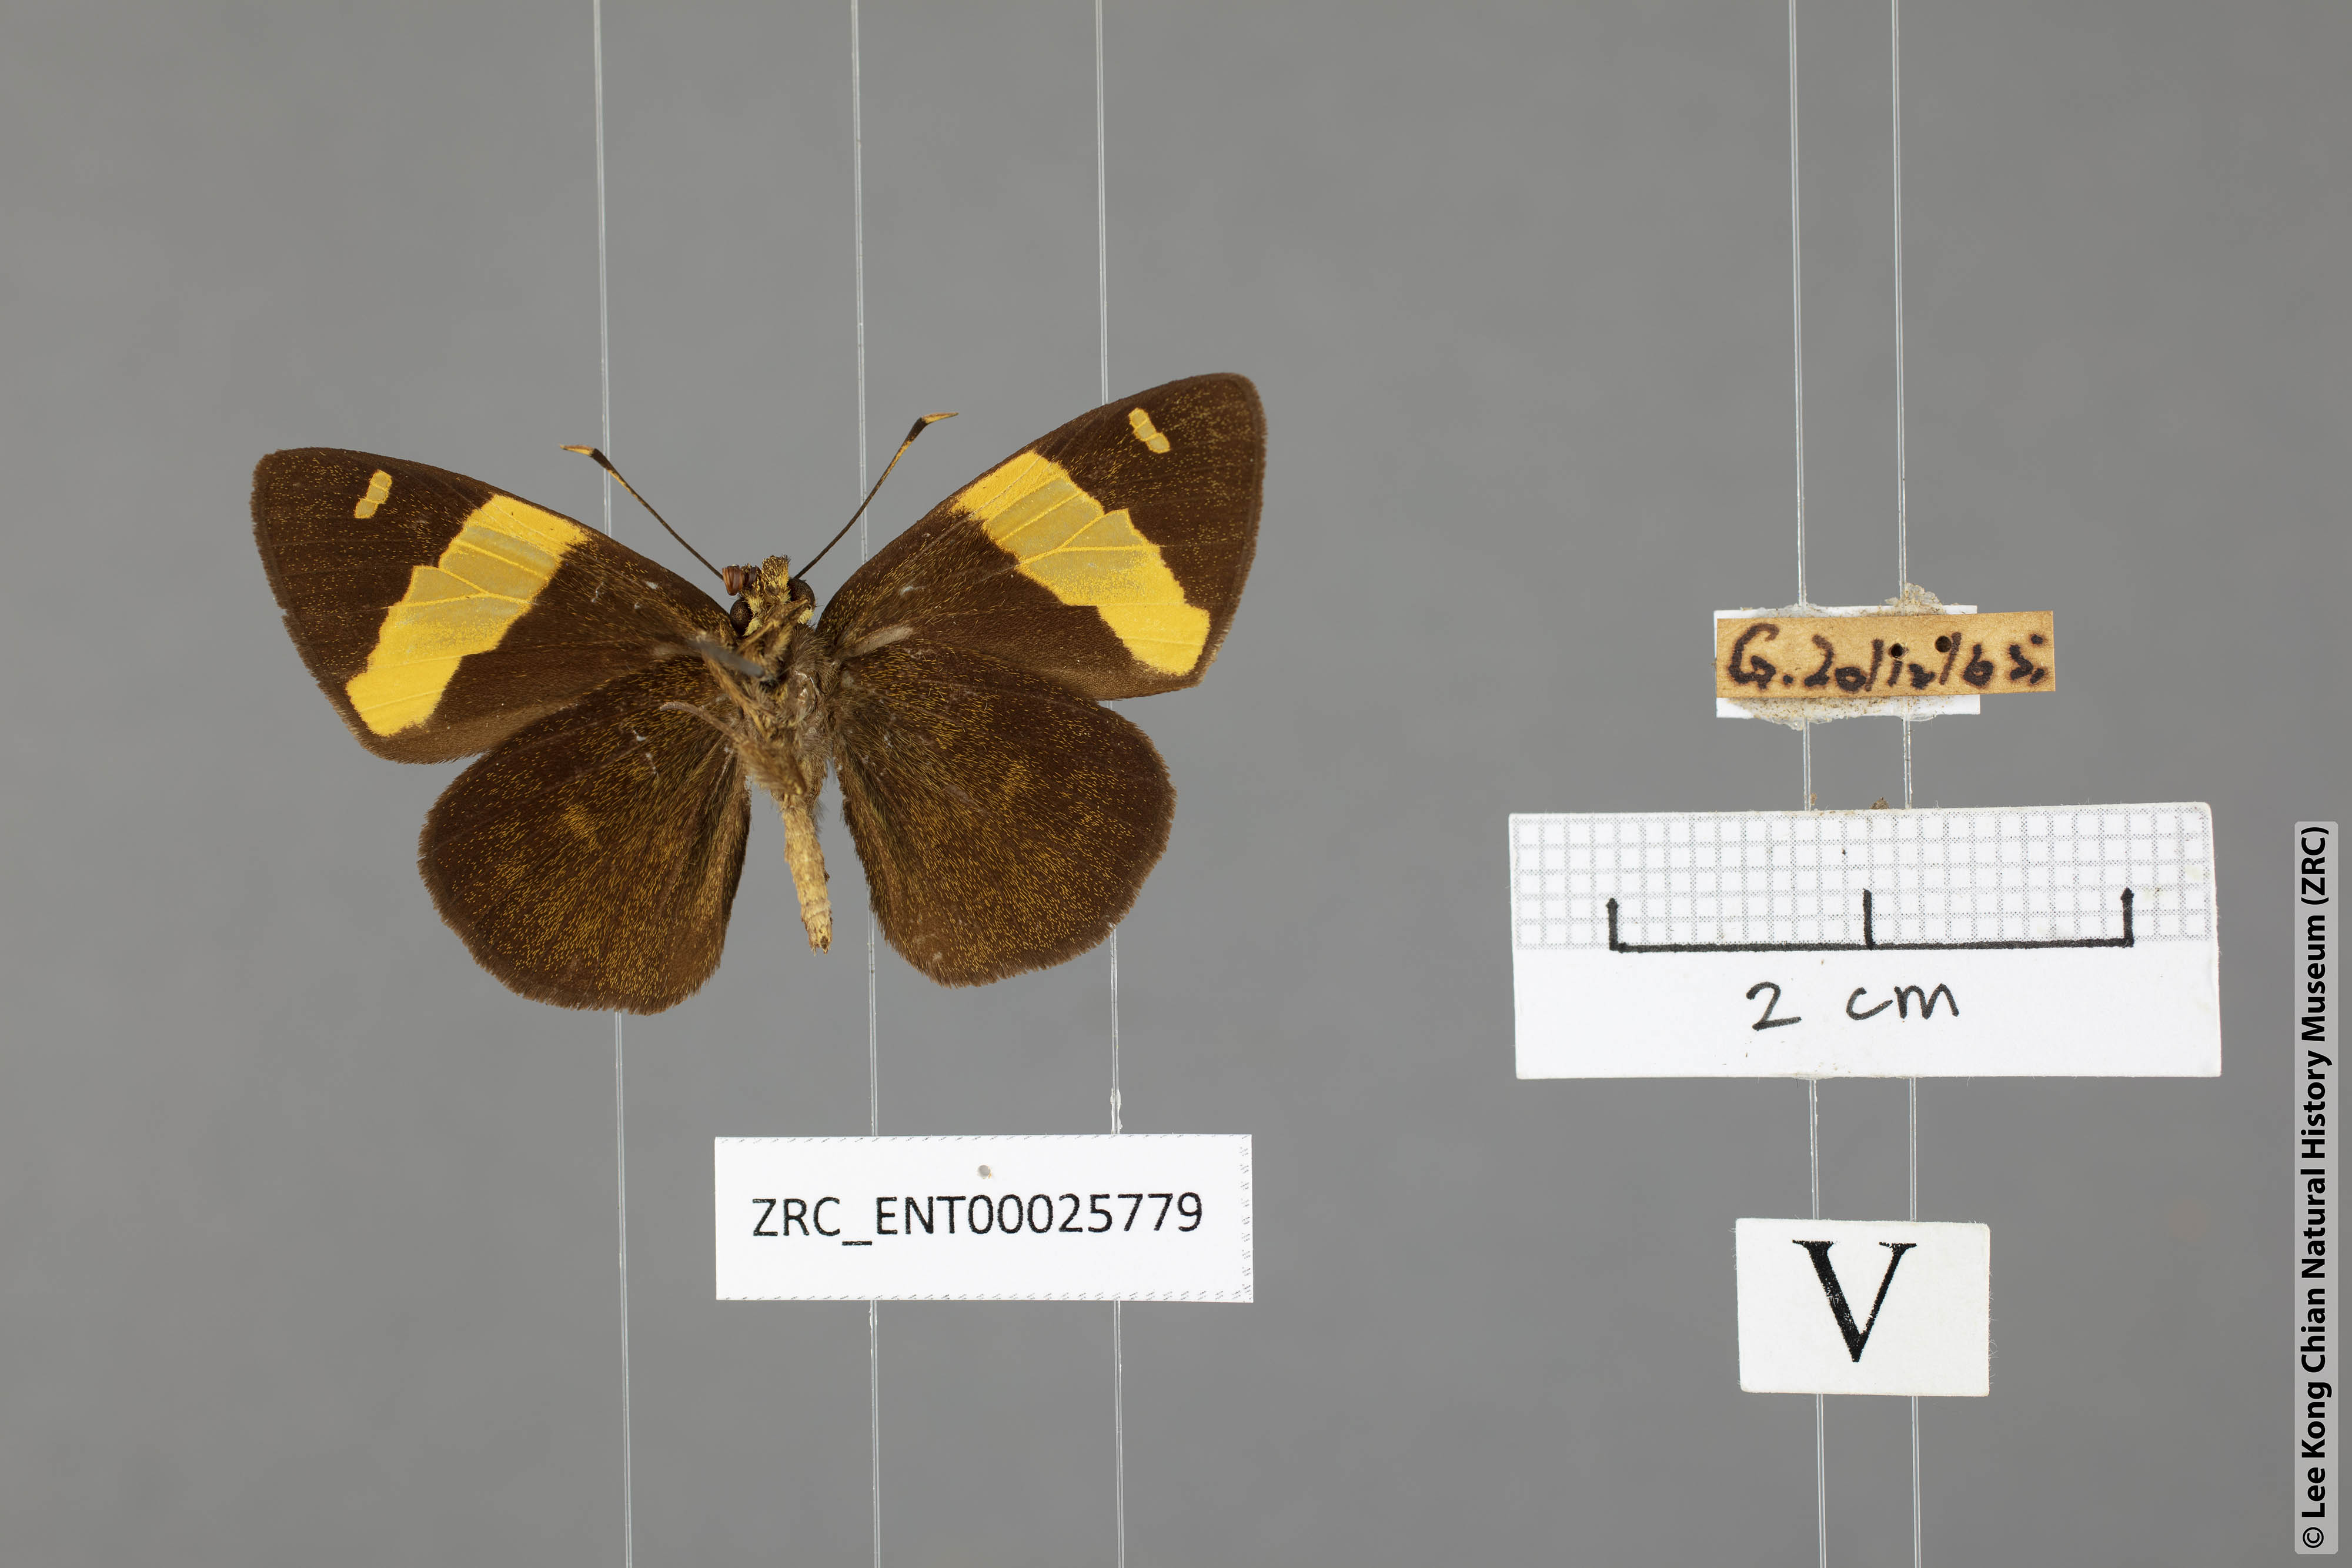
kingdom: Animalia
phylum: Arthropoda
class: Insecta
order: Lepidoptera
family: Hesperiidae
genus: Celaenorrhinus
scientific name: Celaenorrhinus aurivittata
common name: Dark yellow-banded flat
